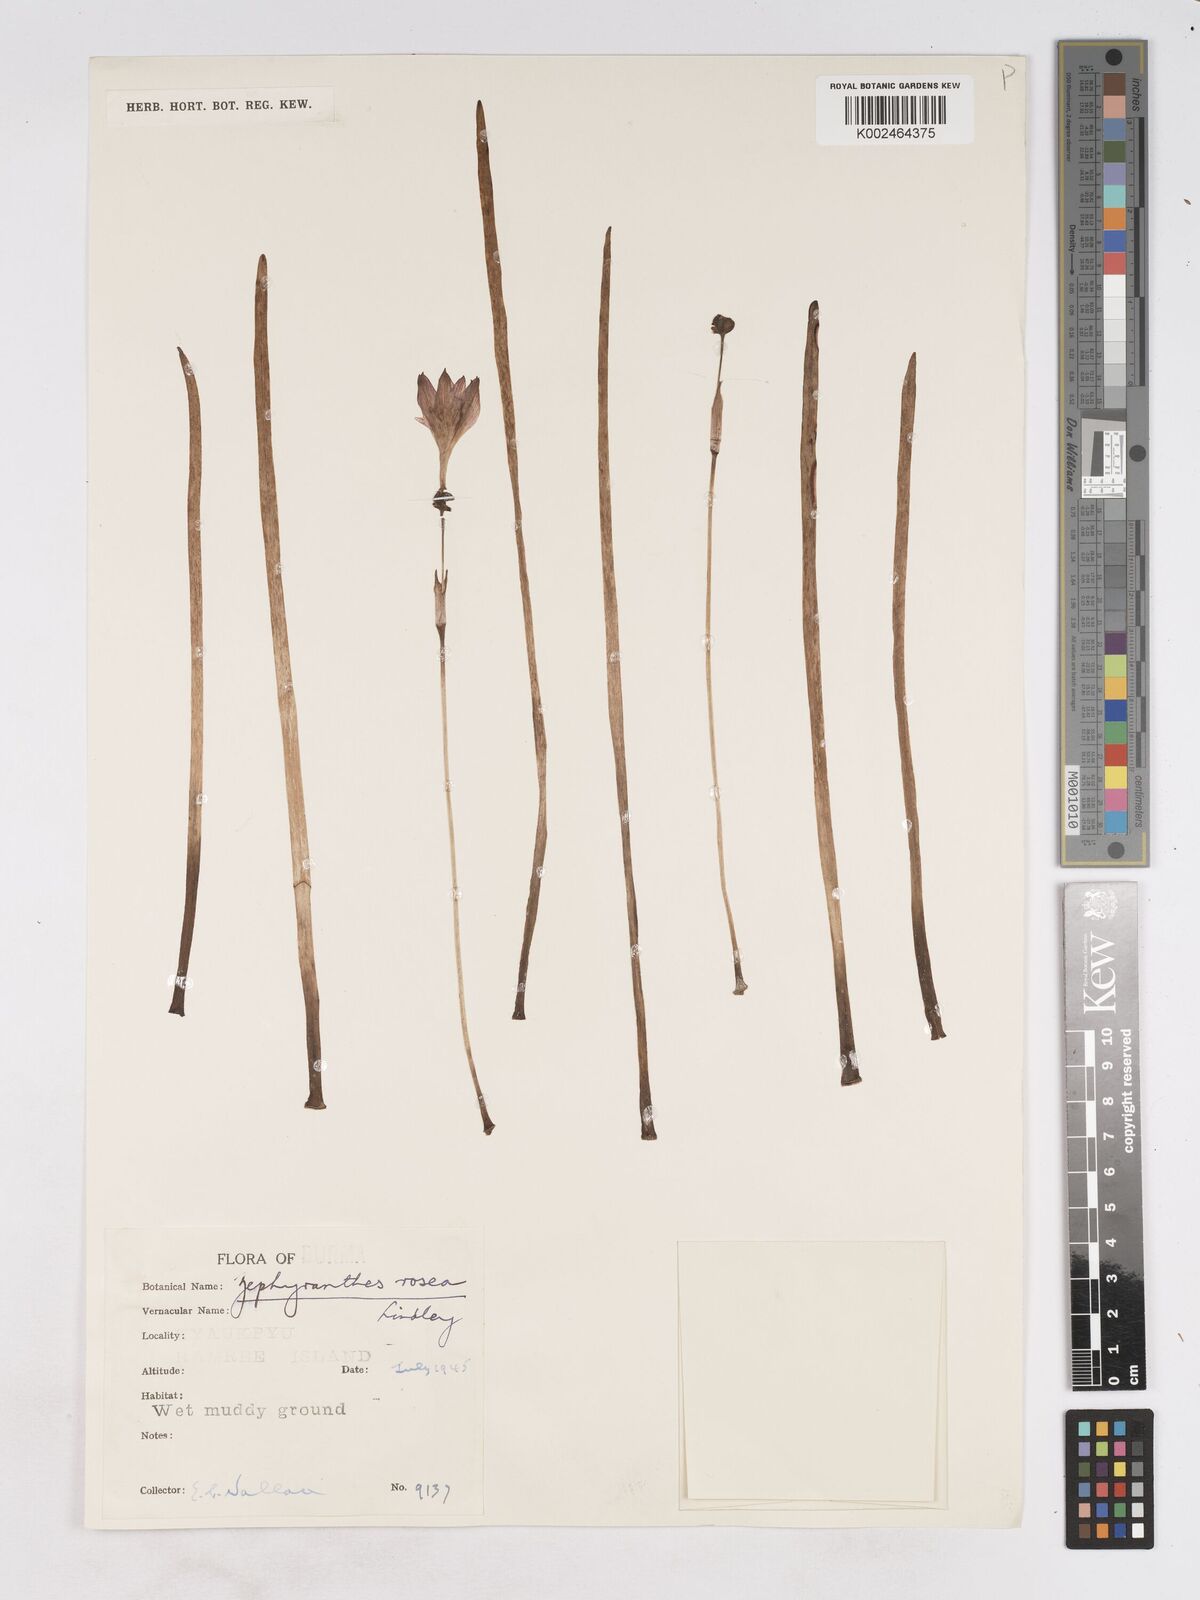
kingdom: Plantae
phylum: Tracheophyta
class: Liliopsida
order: Asparagales
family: Amaryllidaceae
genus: Zephyranthes
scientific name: Zephyranthes rosea
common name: Cuban zephyrlily
